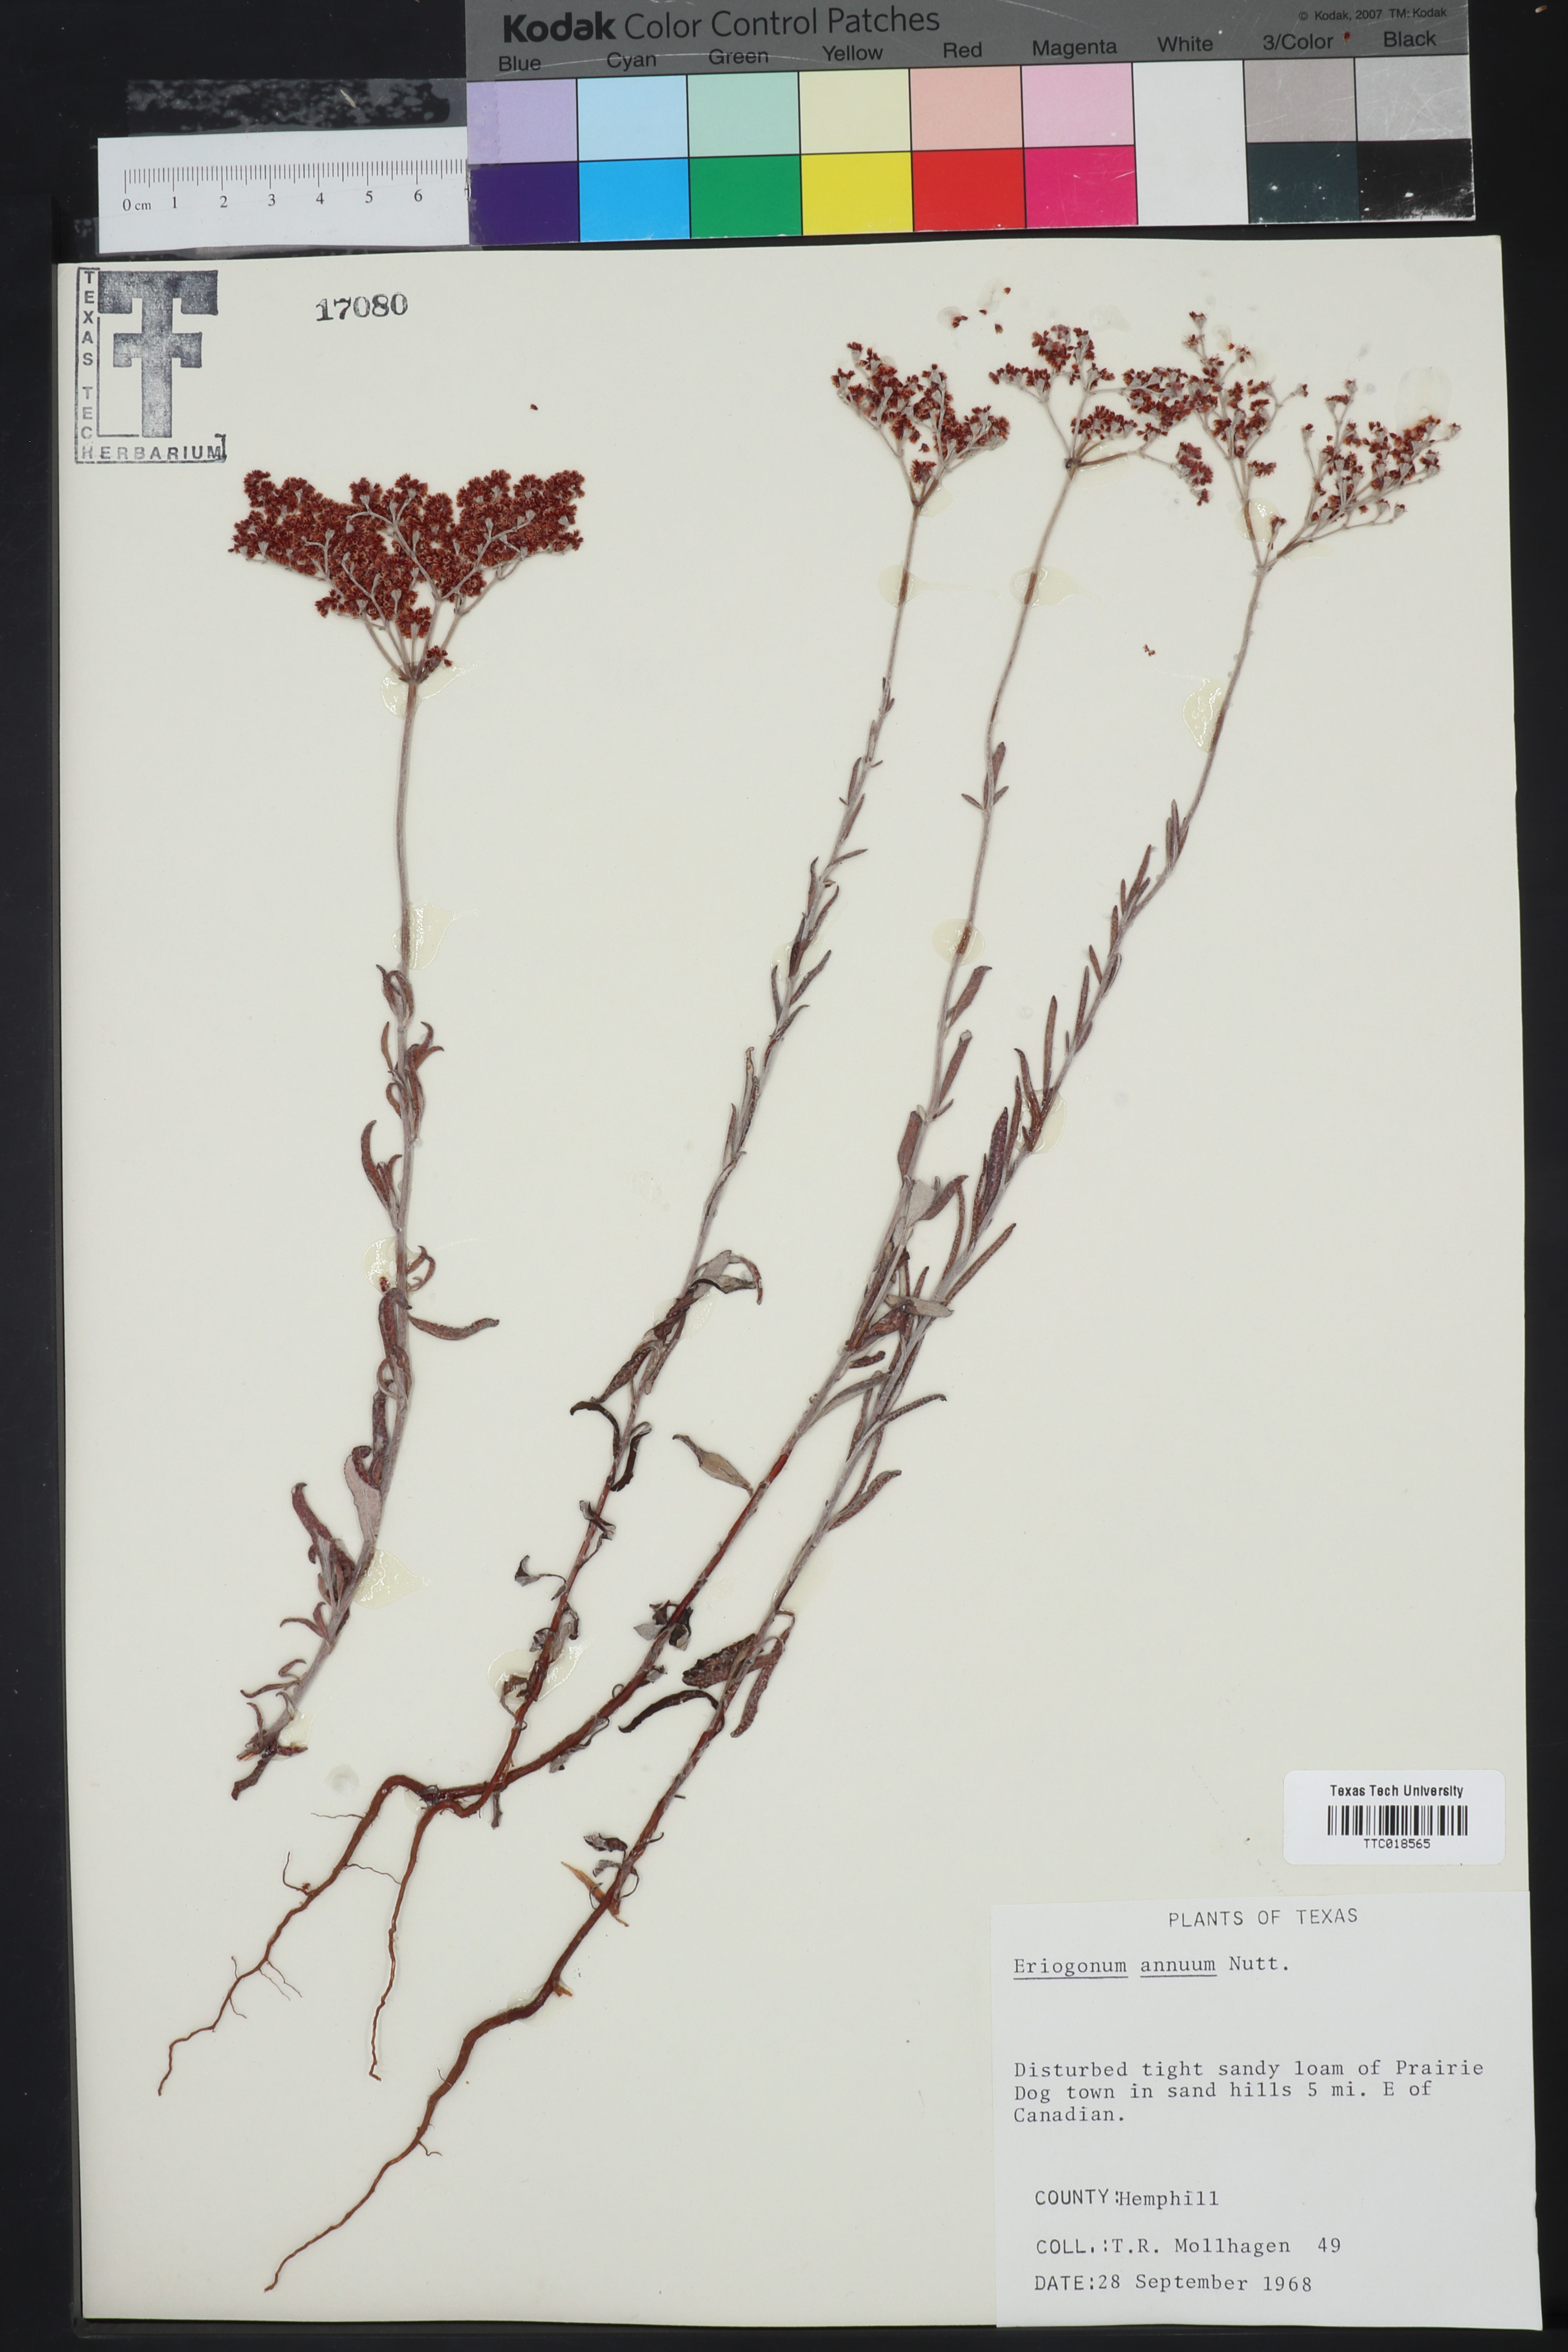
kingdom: Plantae
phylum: Tracheophyta
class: Magnoliopsida
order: Caryophyllales
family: Polygonaceae
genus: Eriogonum
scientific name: Eriogonum annuum
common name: Annual wild buckwheat
